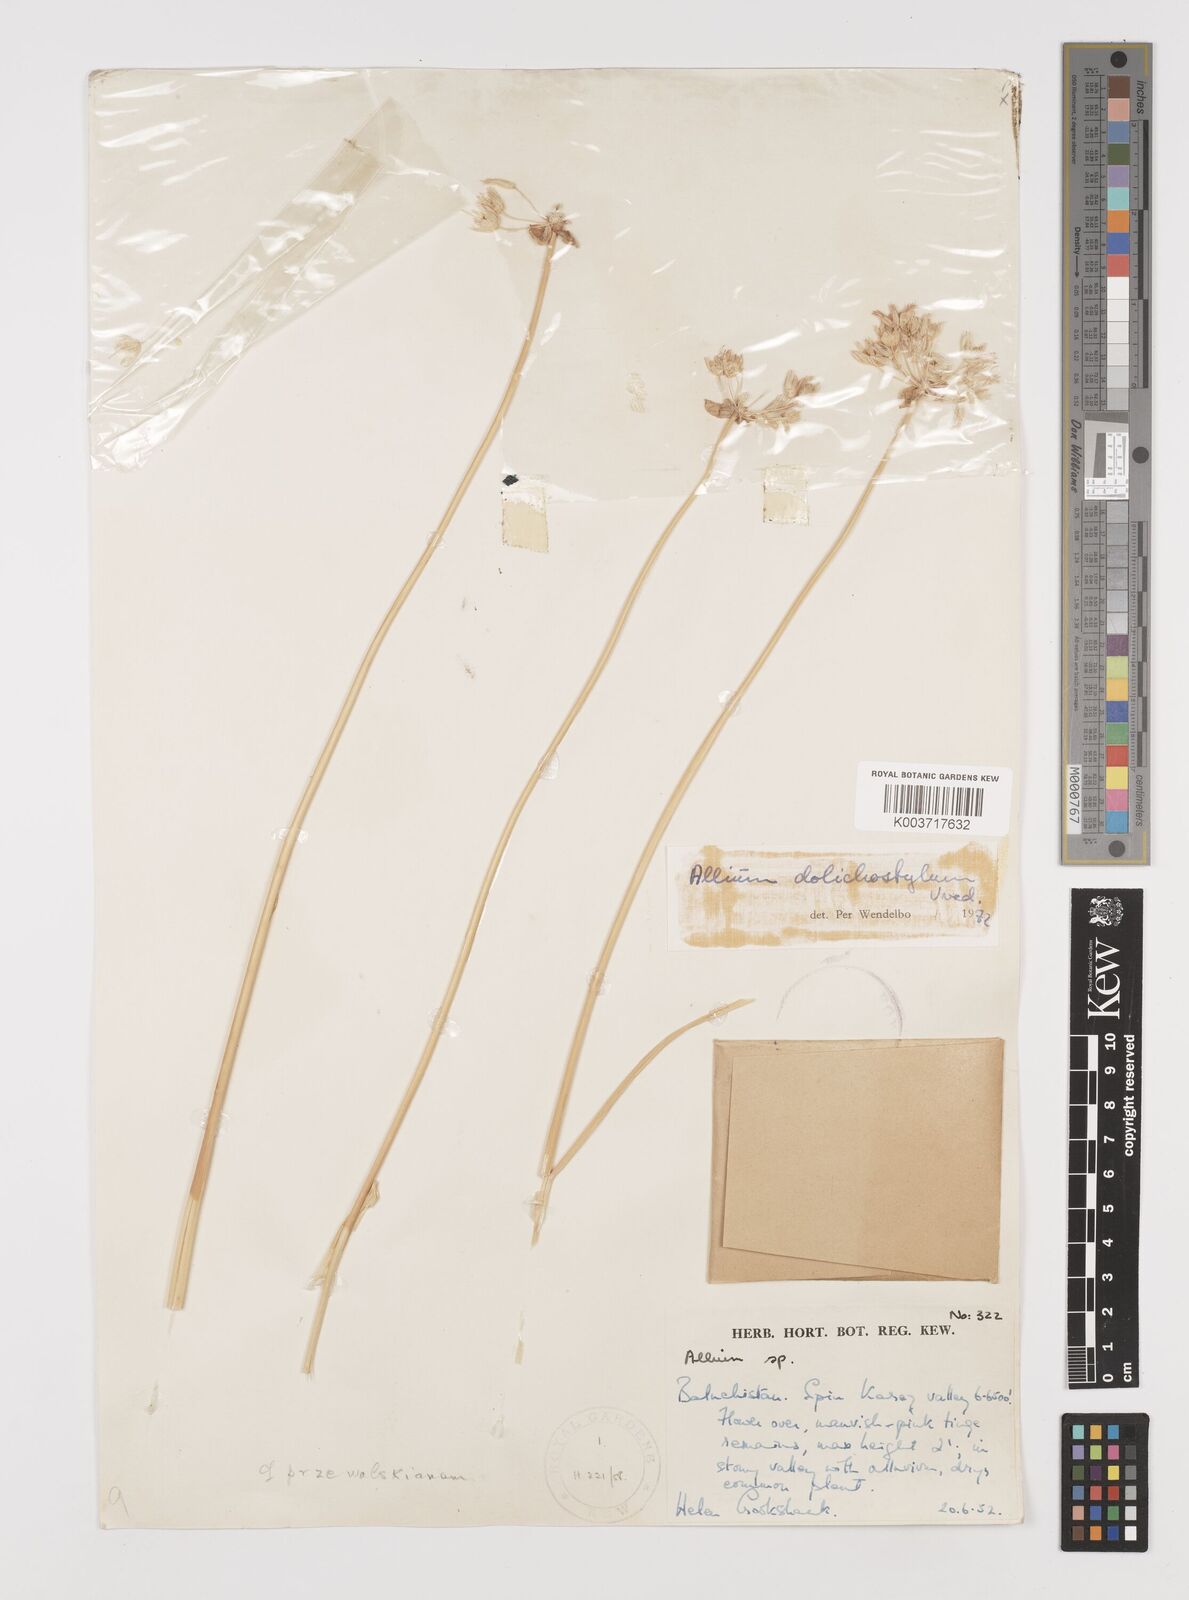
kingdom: Plantae
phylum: Tracheophyta
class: Liliopsida
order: Asparagales
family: Amaryllidaceae
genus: Allium
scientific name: Allium dolichostylum
